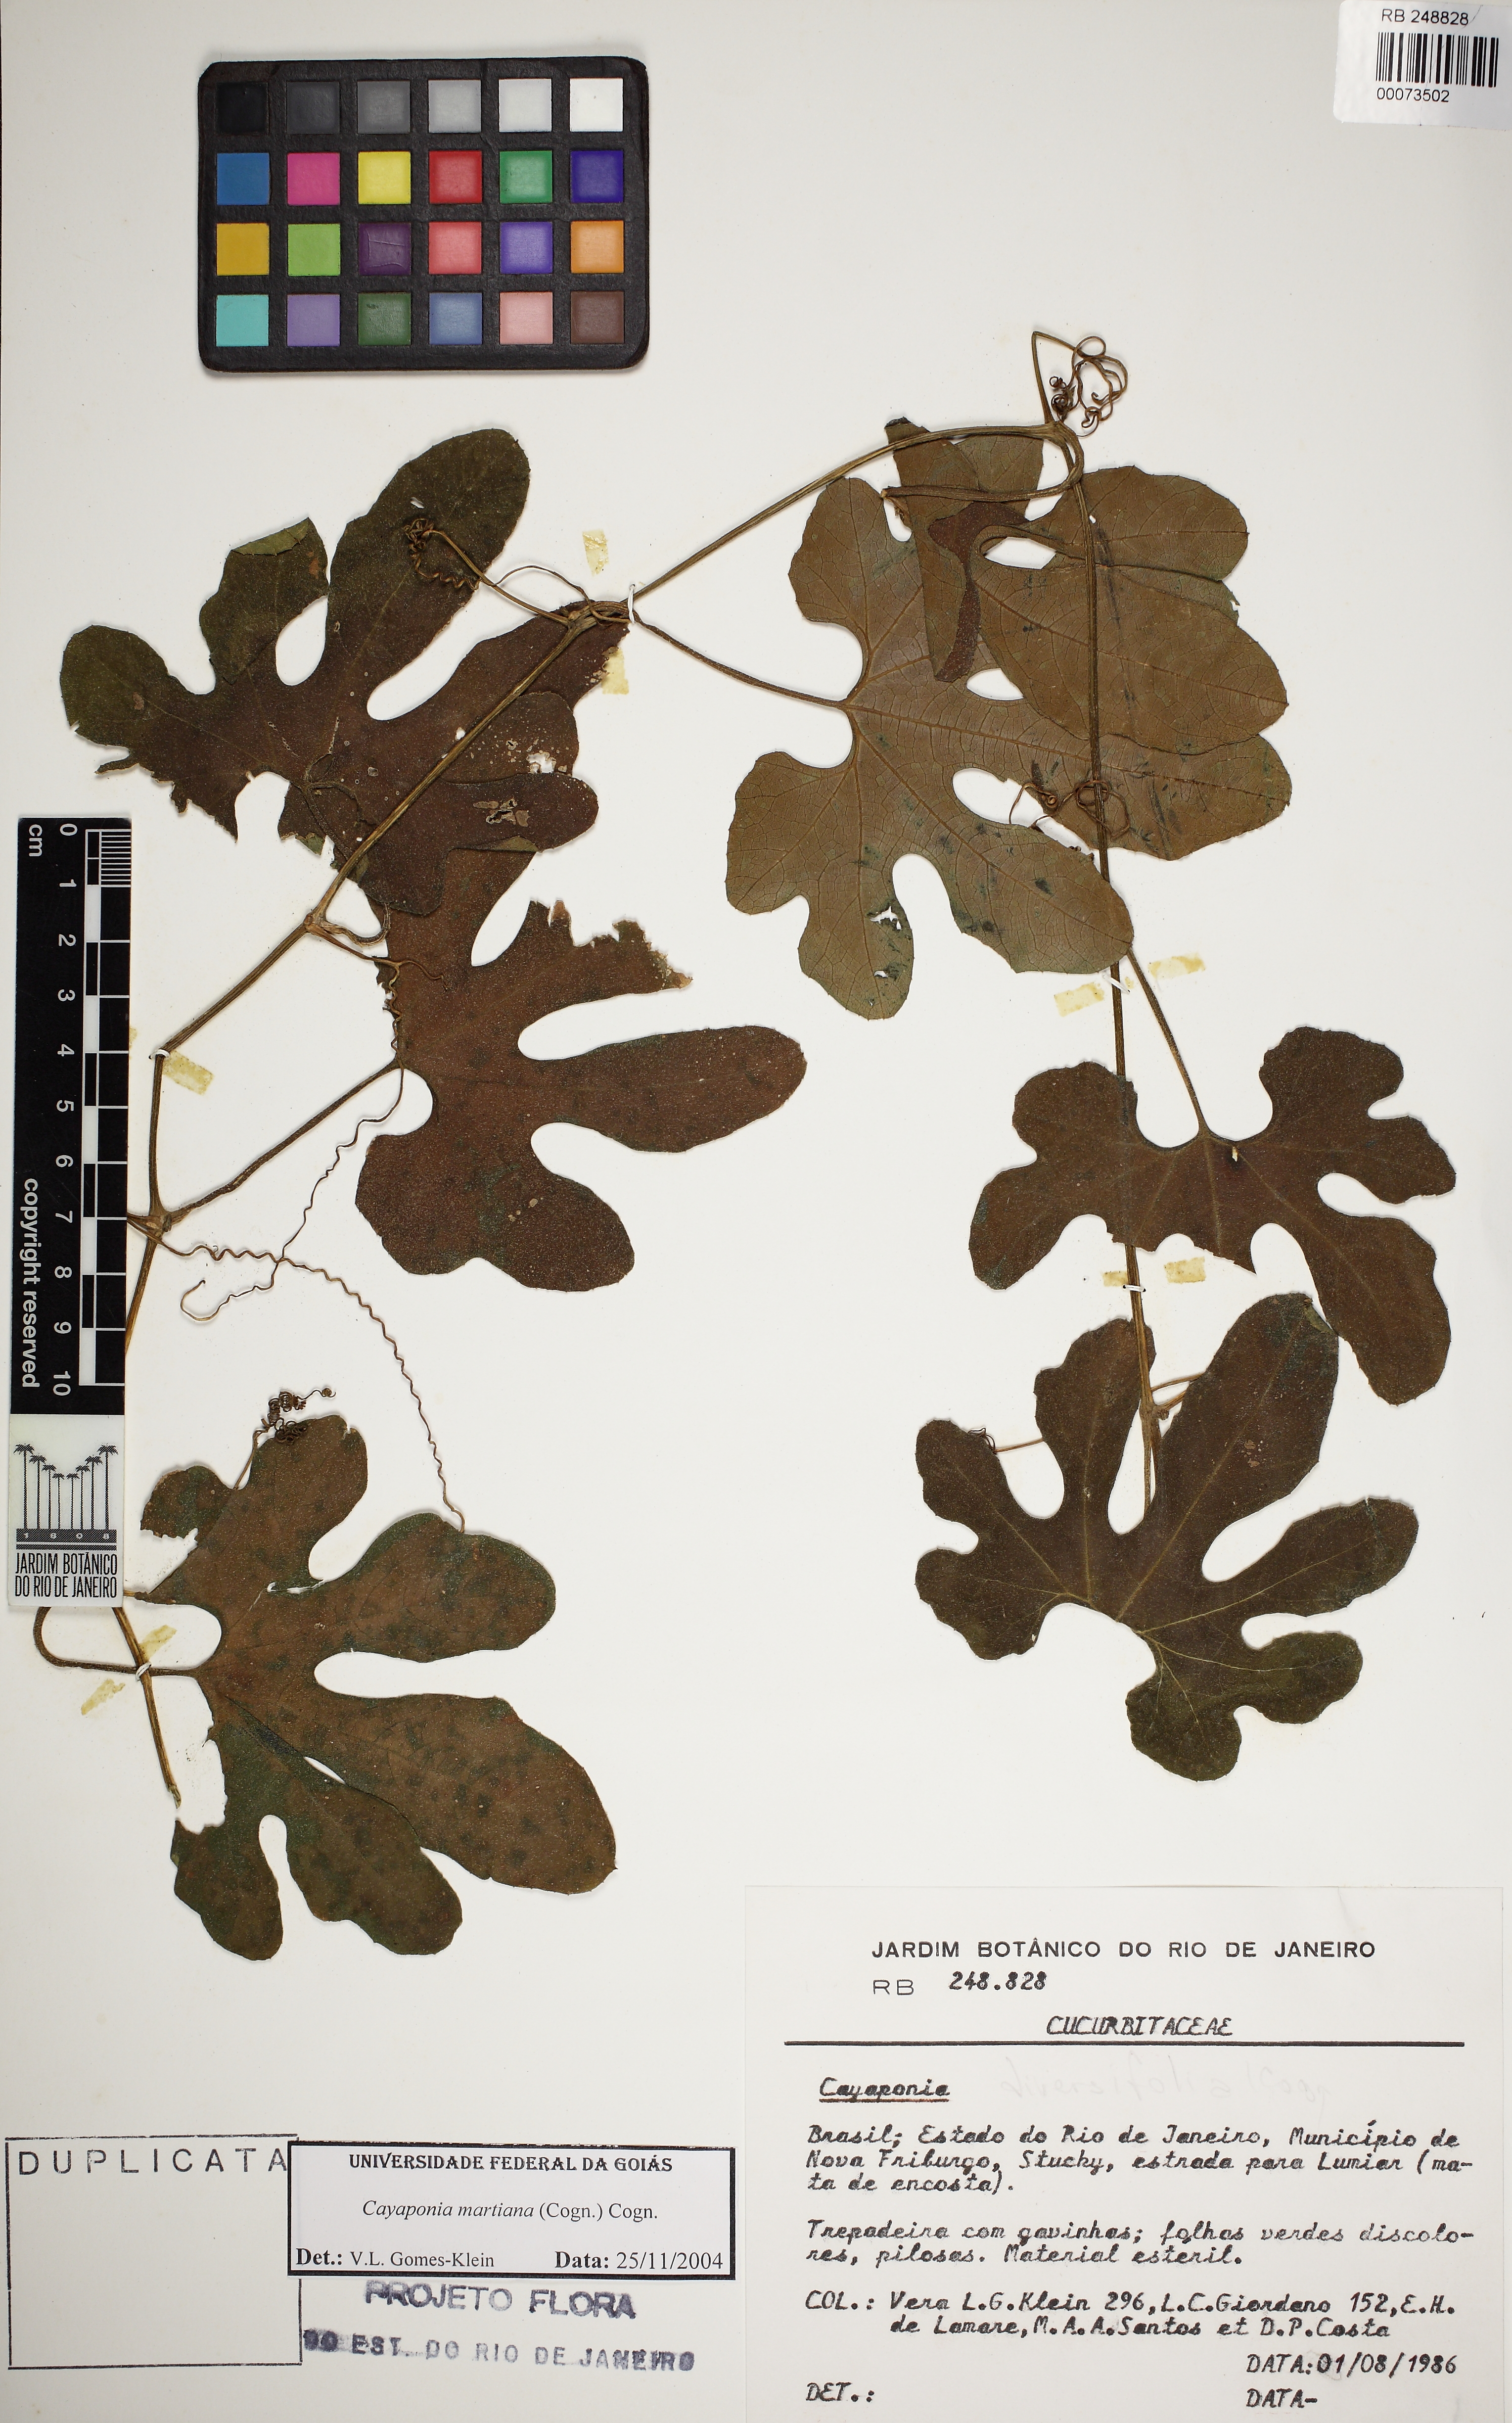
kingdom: Plantae
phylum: Tracheophyta
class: Magnoliopsida
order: Cucurbitales
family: Cucurbitaceae
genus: Cayaponia
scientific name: Cayaponia martiana
